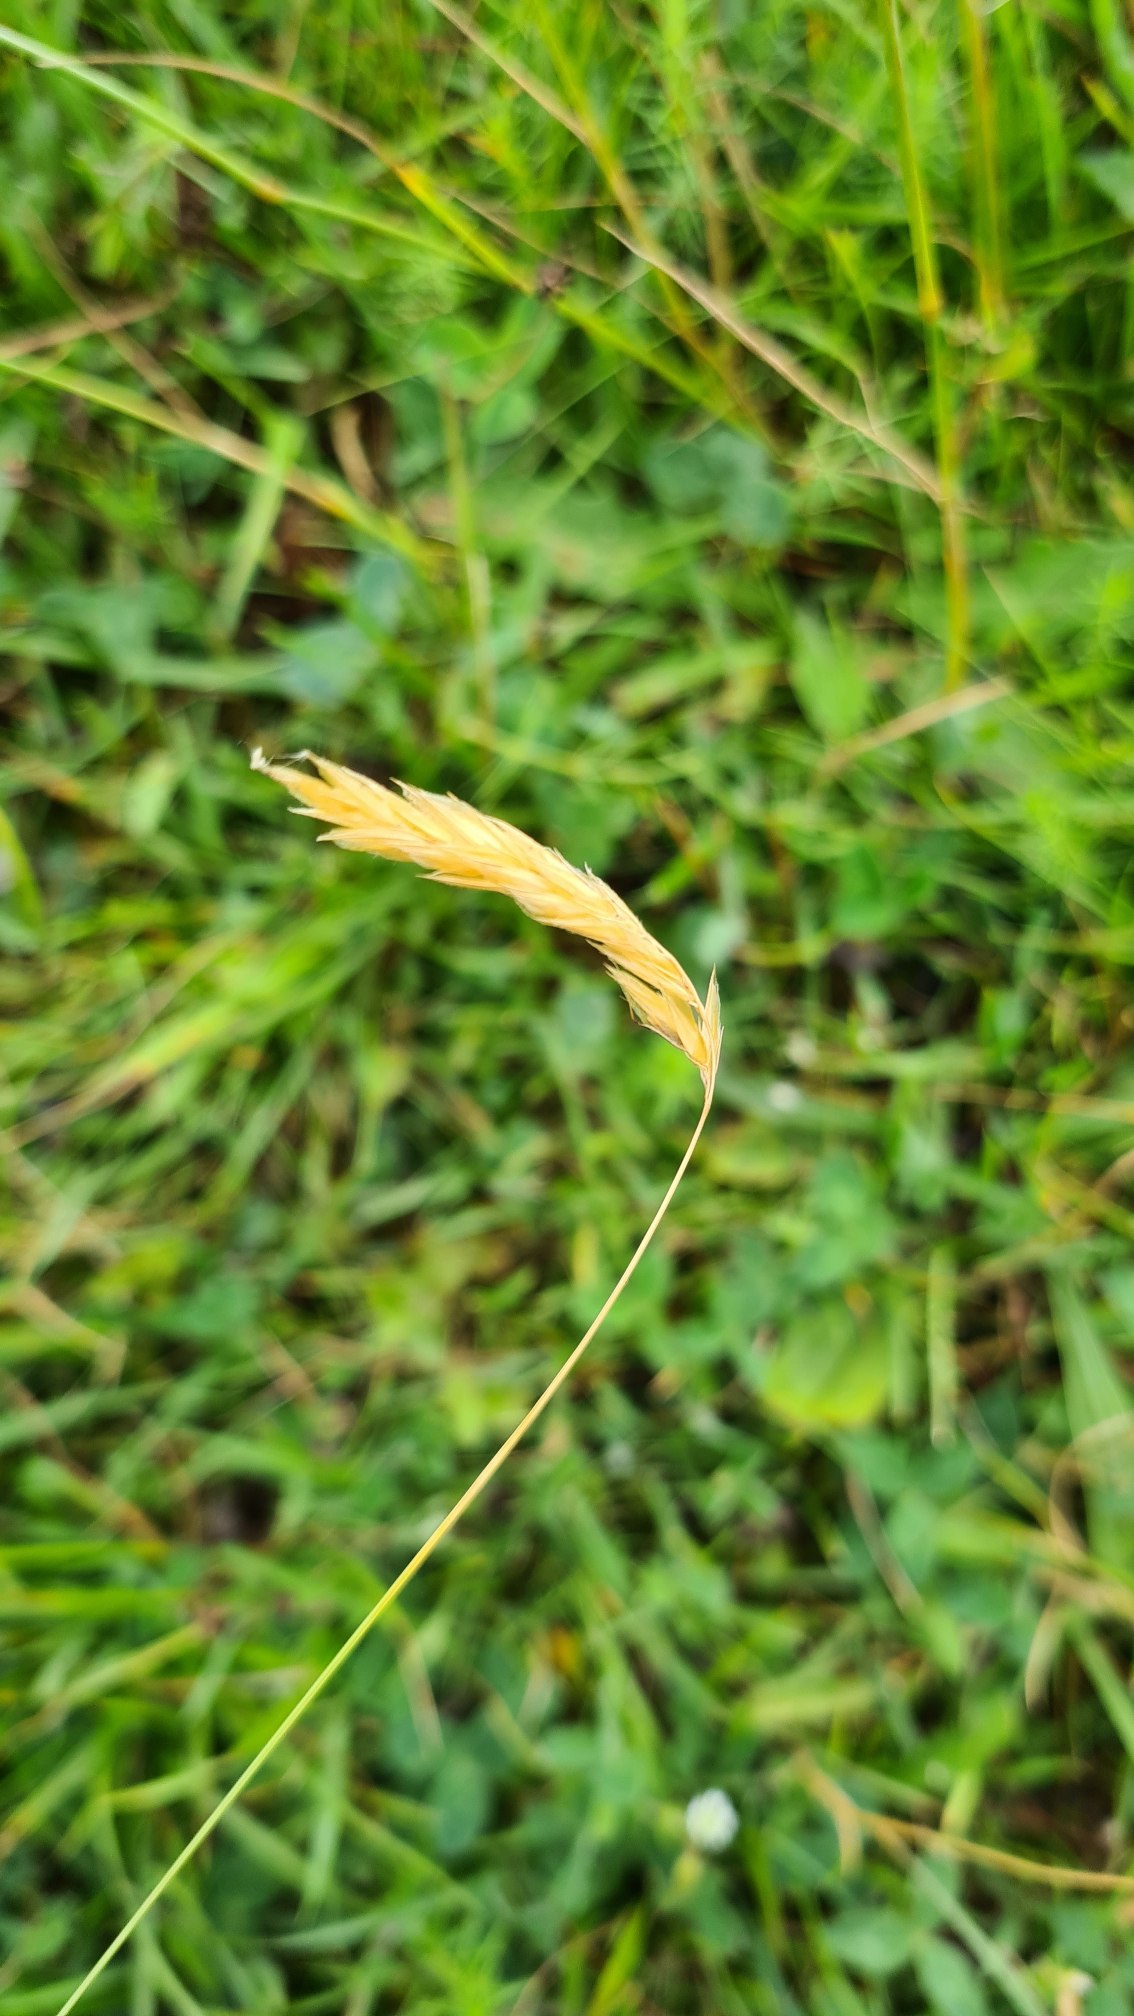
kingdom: Plantae
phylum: Tracheophyta
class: Liliopsida
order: Poales
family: Poaceae
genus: Anthoxanthum
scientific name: Anthoxanthum odoratum
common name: Vellugtende gulaks
